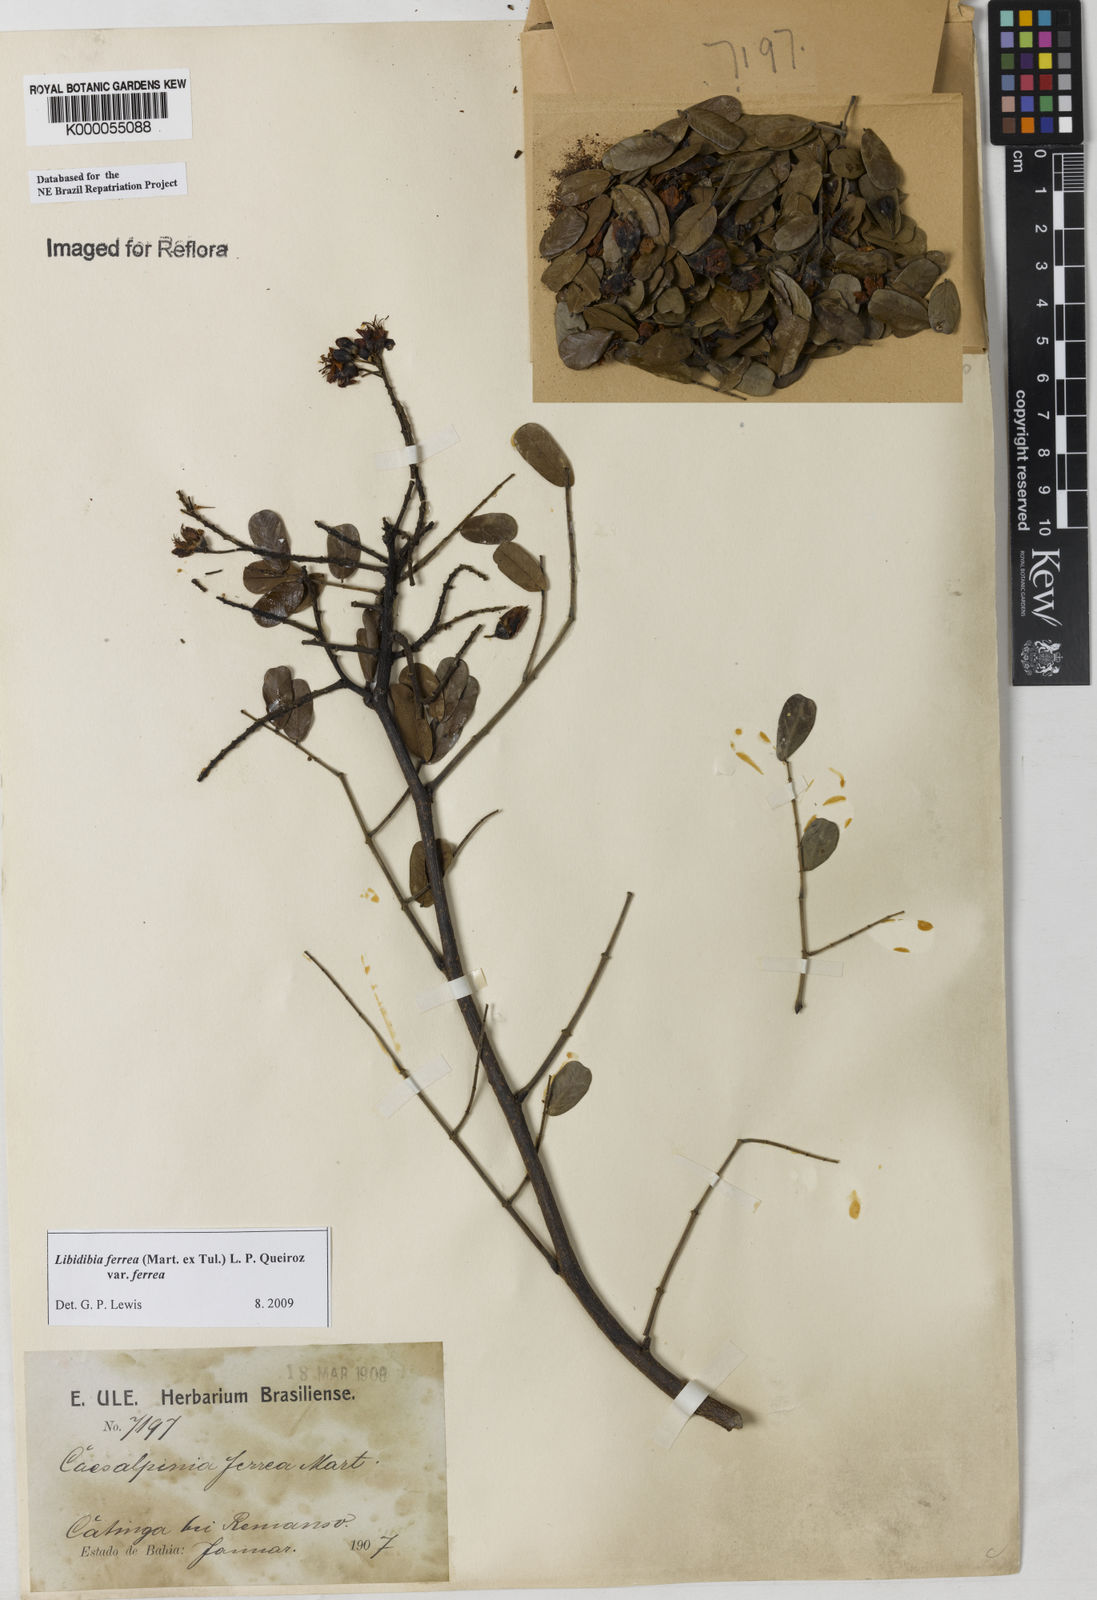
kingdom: Plantae
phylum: Tracheophyta
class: Magnoliopsida
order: Fabales
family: Fabaceae
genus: Libidibia
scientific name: Libidibia ferrea
